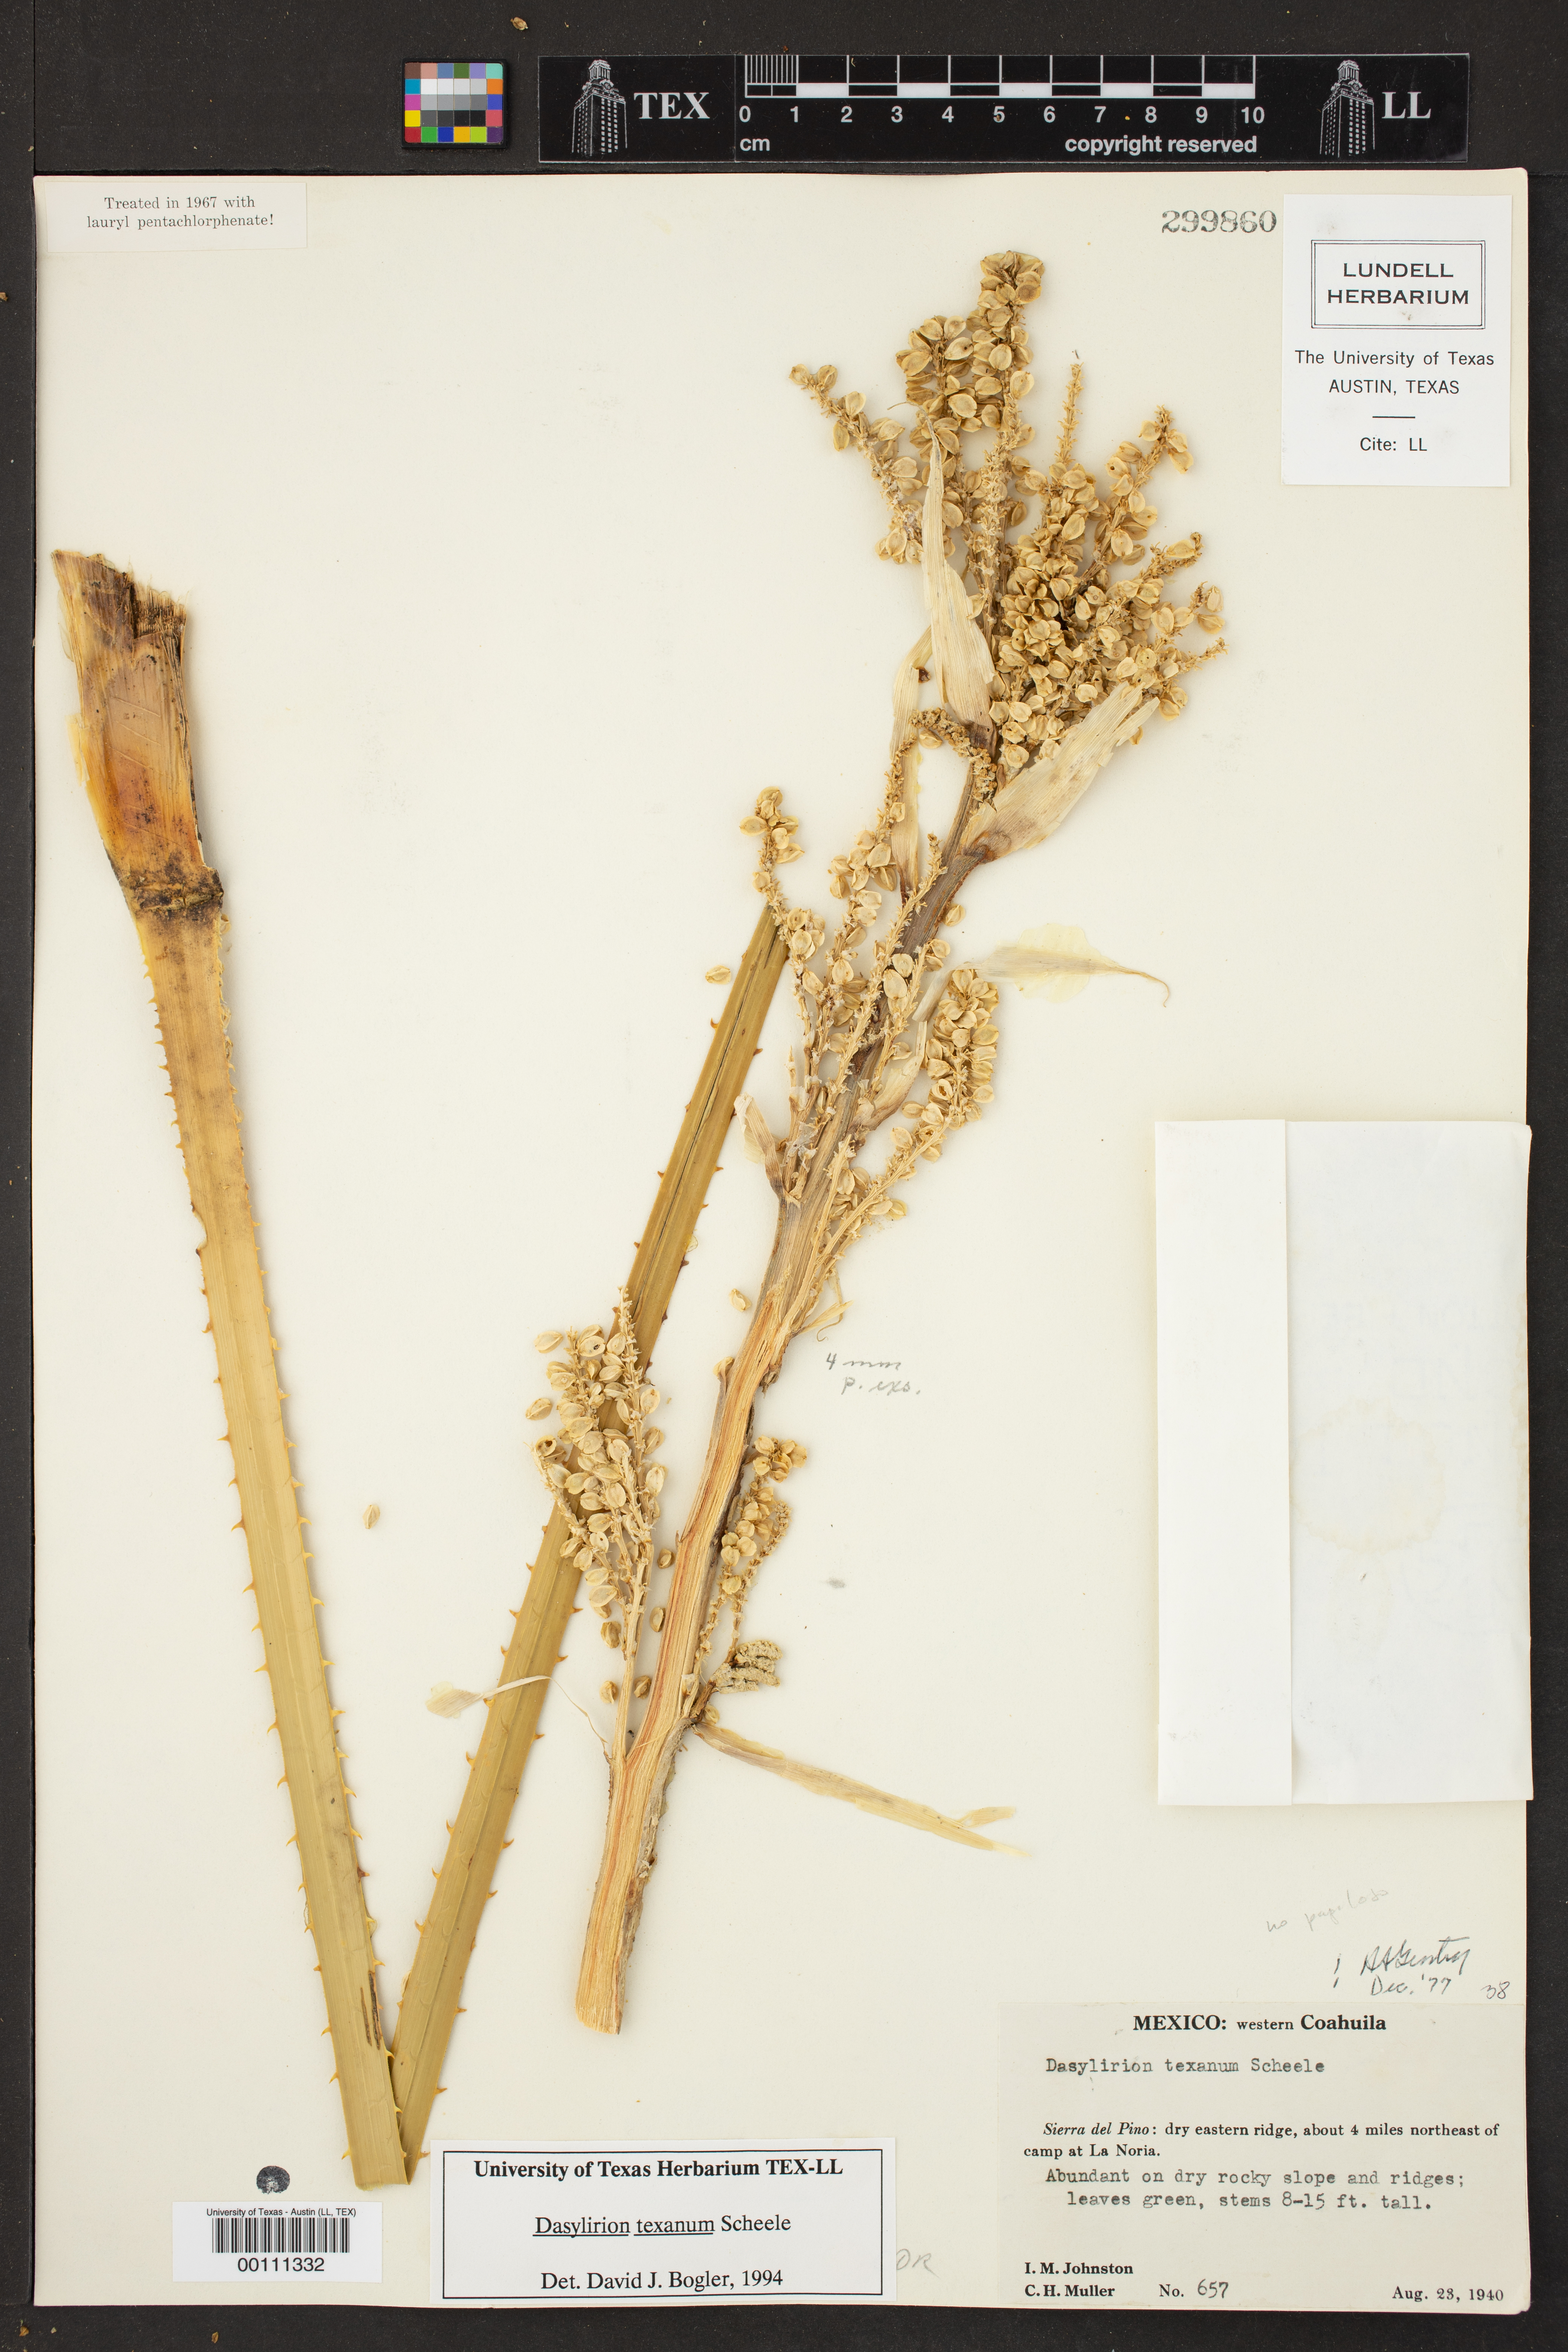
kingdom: Plantae
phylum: Tracheophyta
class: Liliopsida
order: Asparagales
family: Asparagaceae
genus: Dasylirion
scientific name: Dasylirion texanum
